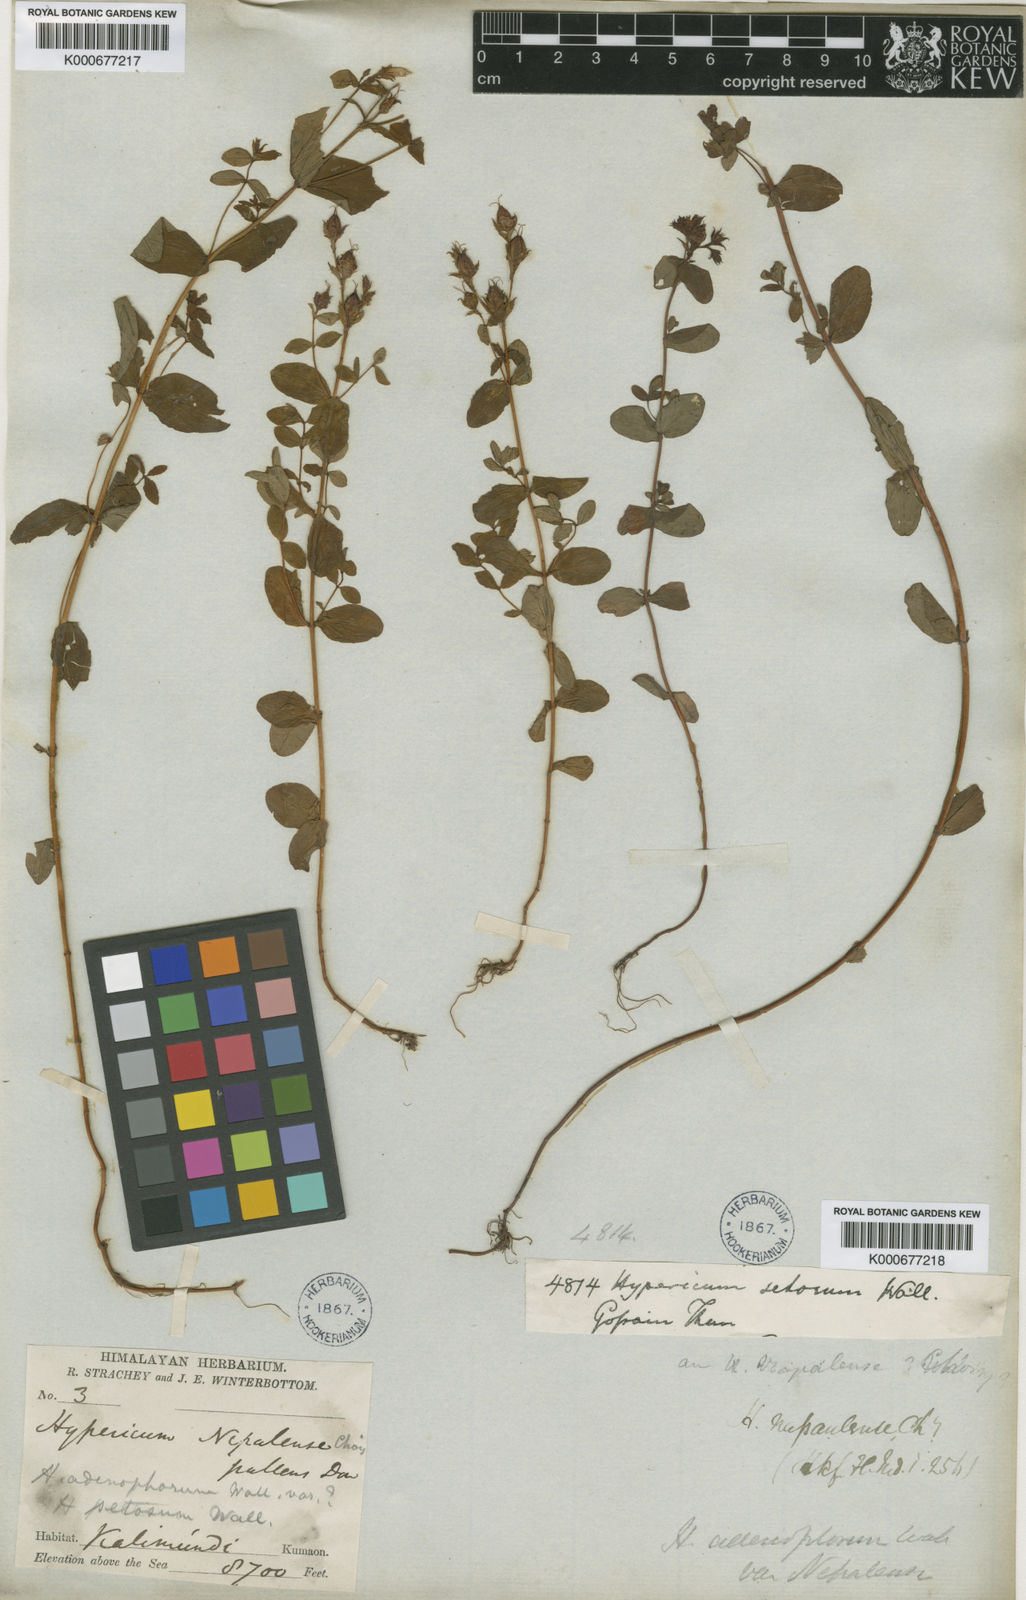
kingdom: Plantae
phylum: Tracheophyta
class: Magnoliopsida
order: Malpighiales
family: Hypericaceae
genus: Hypericum
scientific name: Hypericum himalaicum
